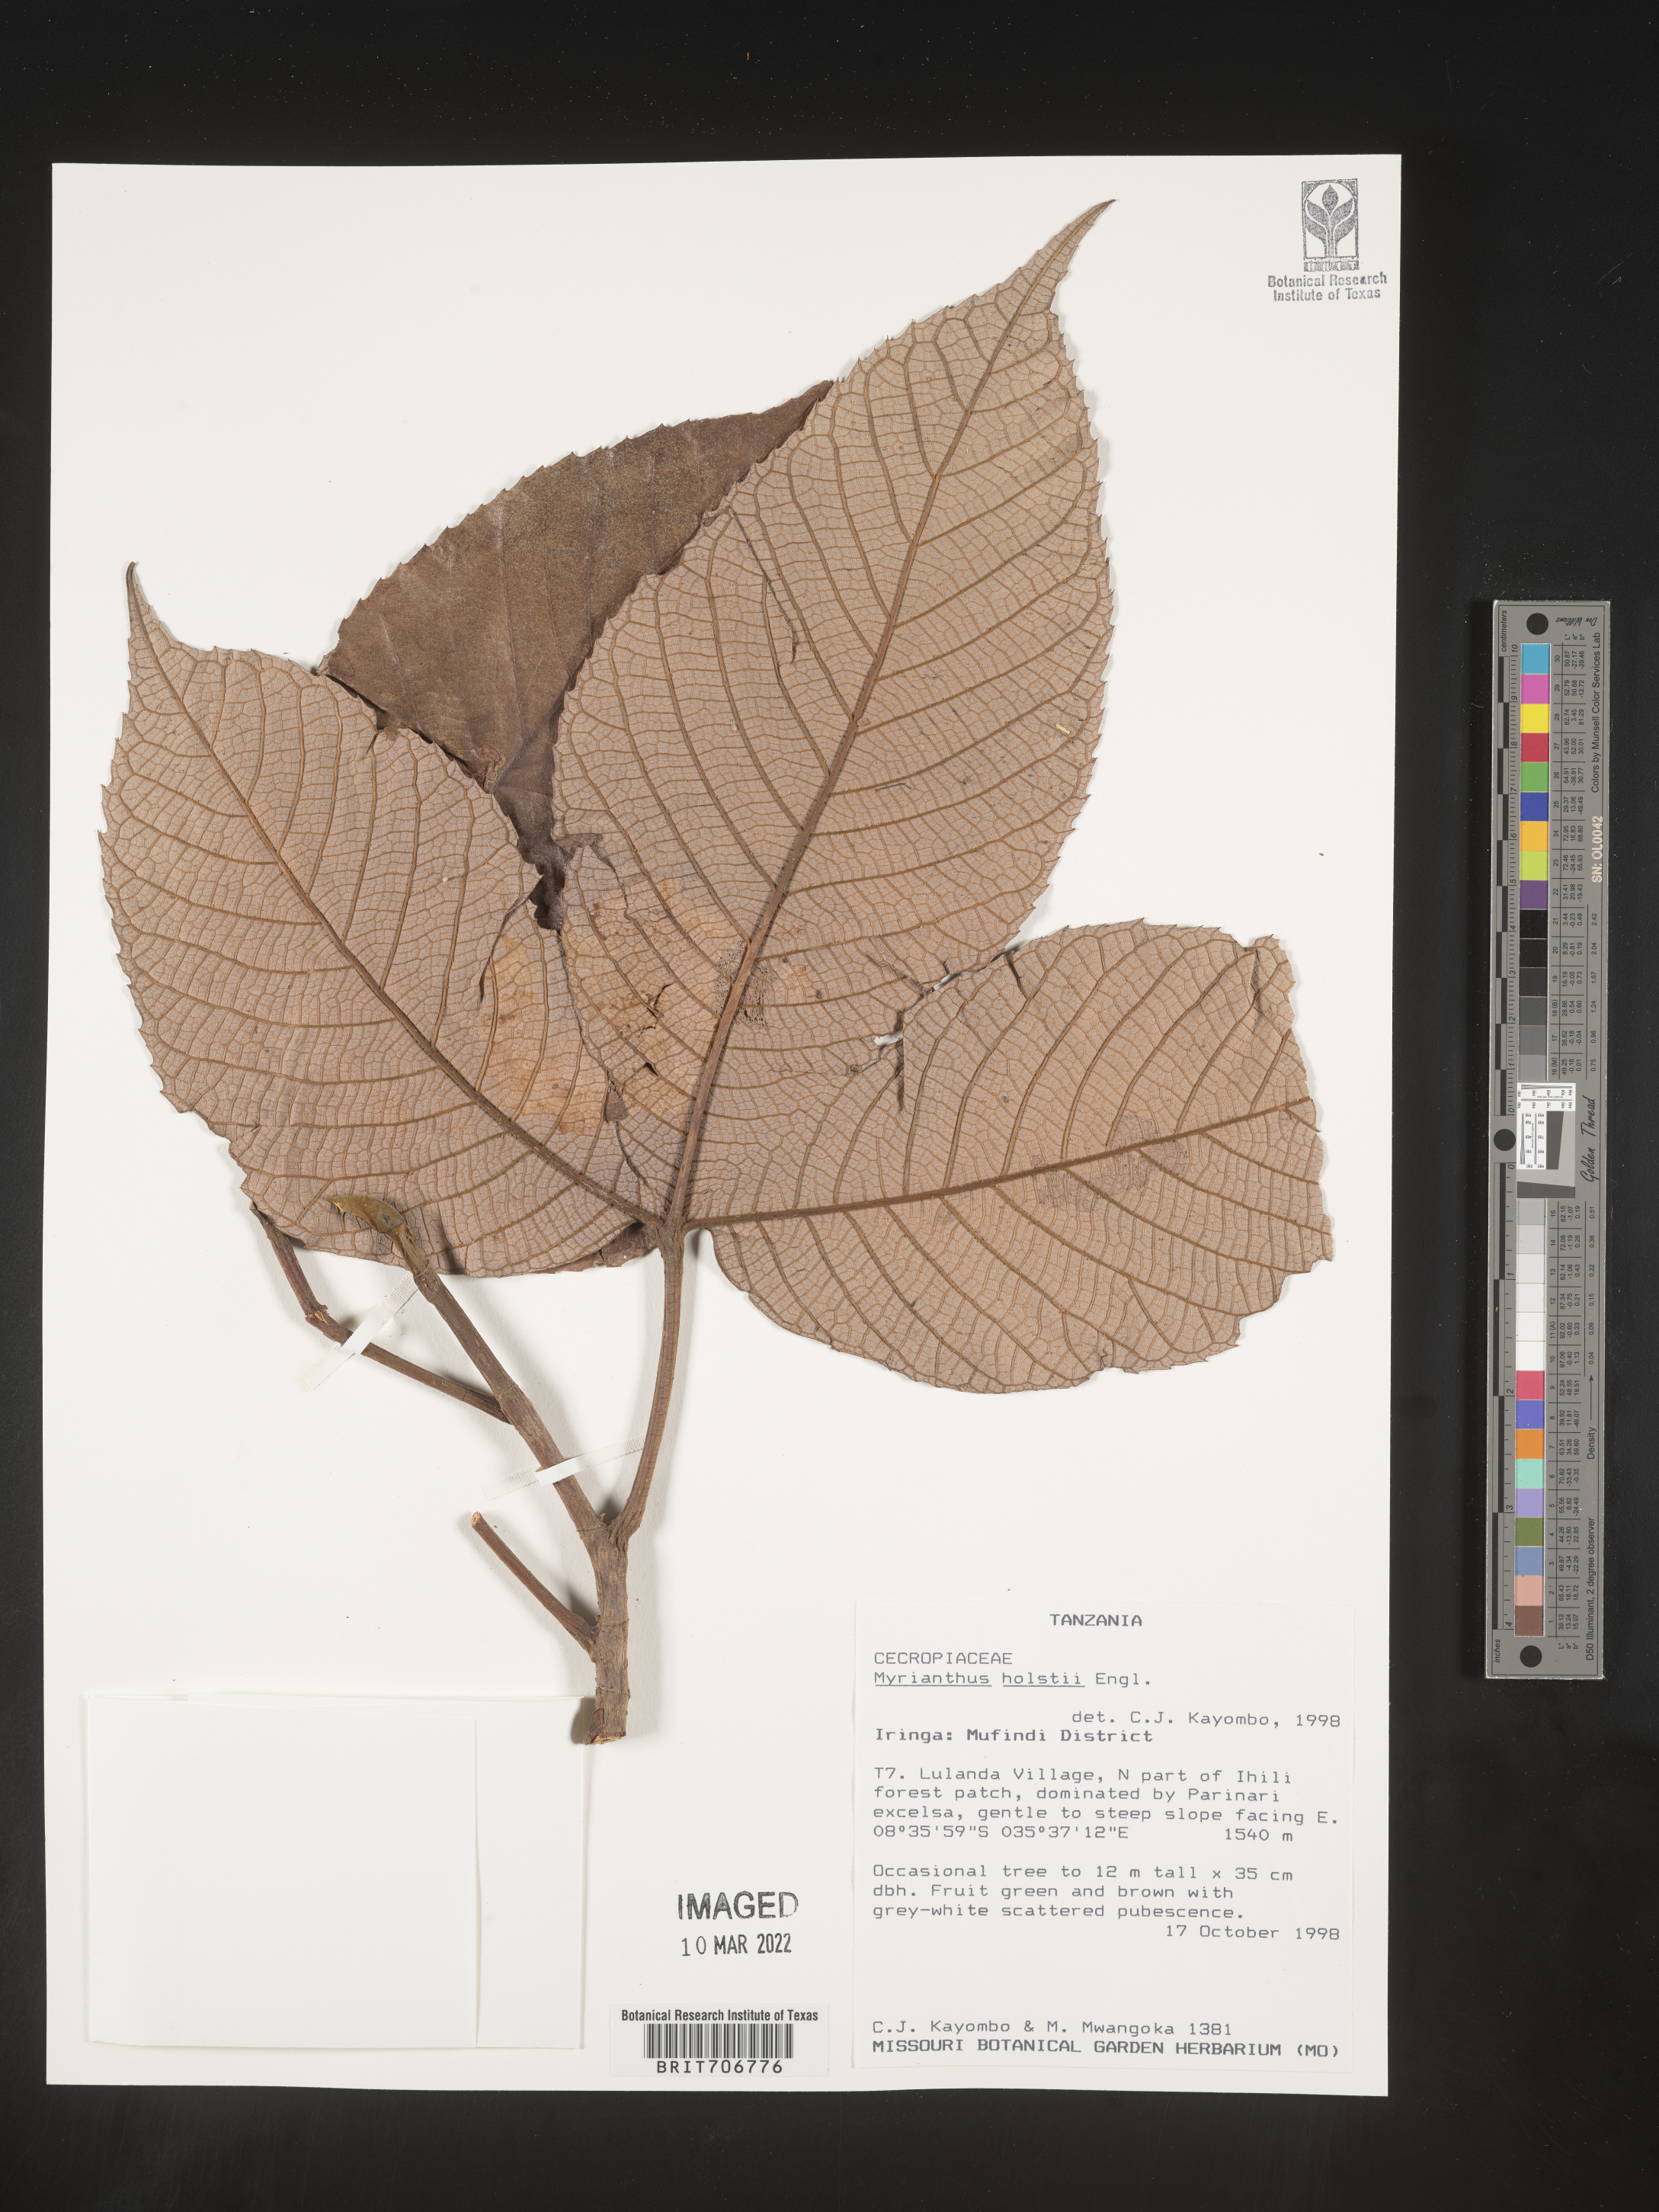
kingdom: Plantae
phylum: Tracheophyta
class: Magnoliopsida
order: Rosales
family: Urticaceae
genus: Myrianthus
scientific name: Myrianthus
